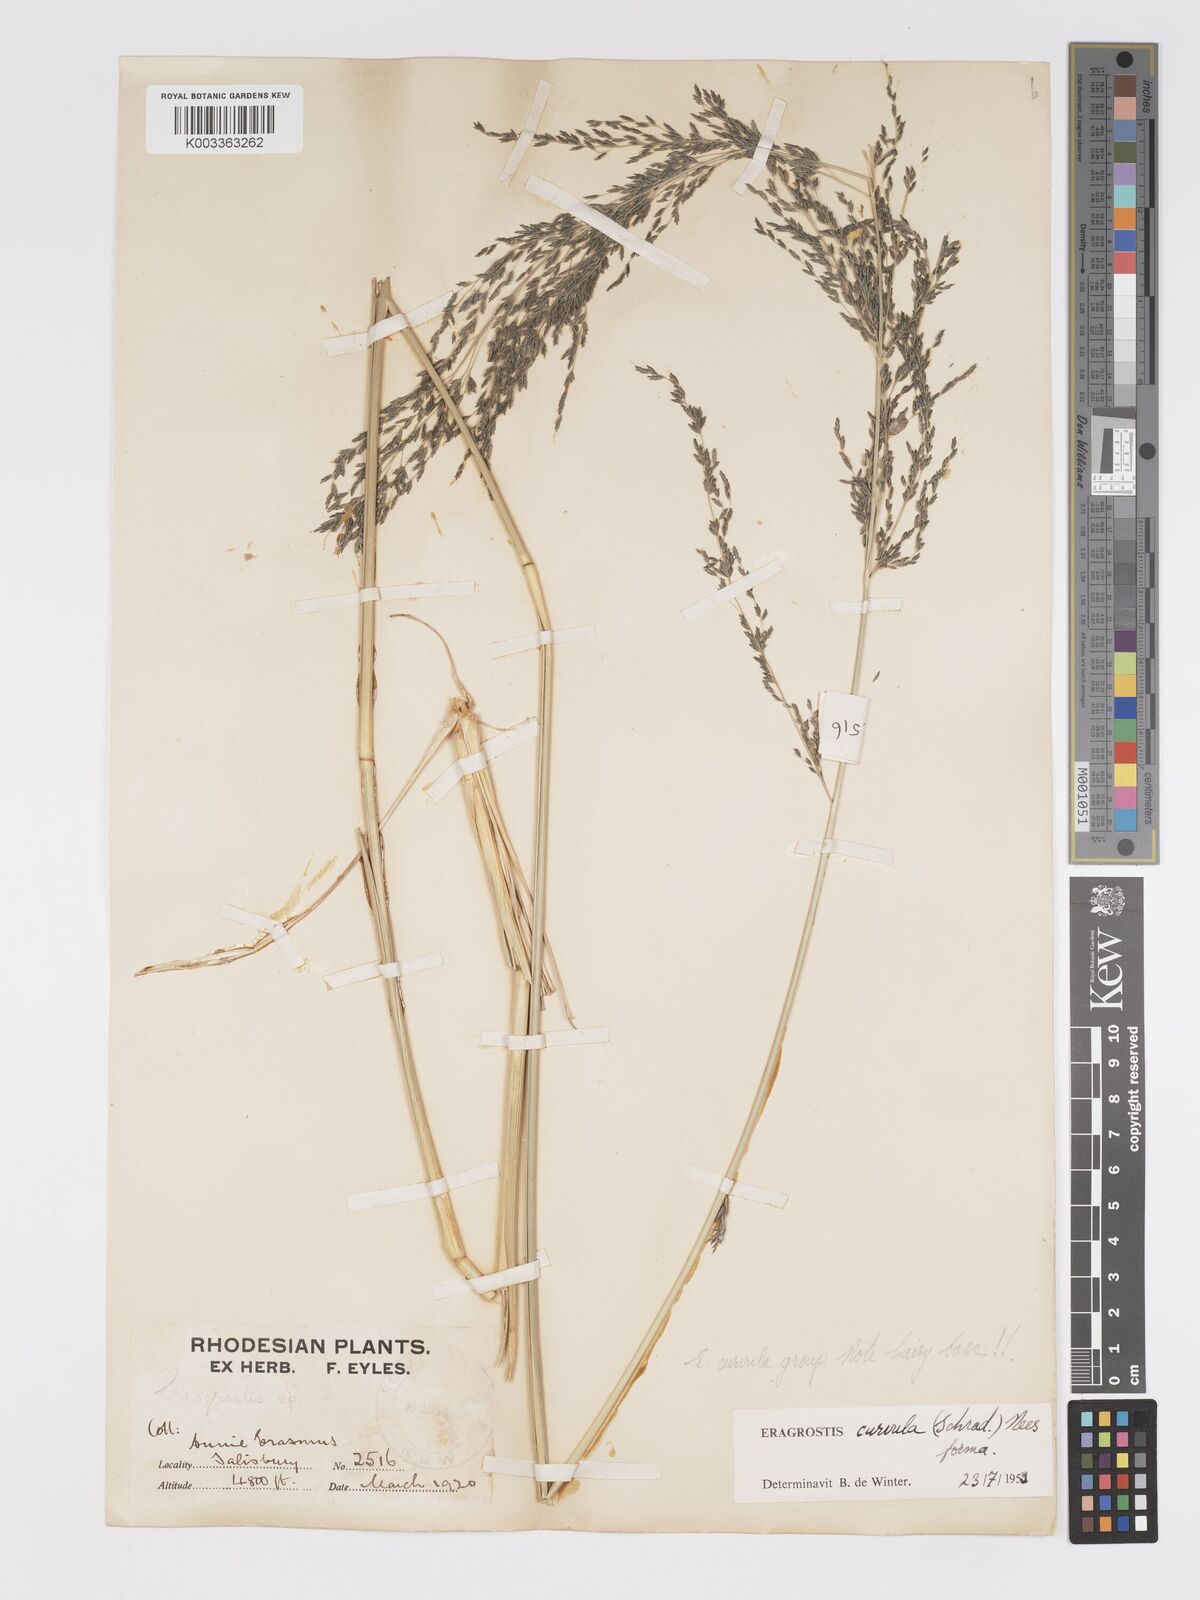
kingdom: Plantae
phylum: Tracheophyta
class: Liliopsida
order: Poales
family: Poaceae
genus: Eragrostis
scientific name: Eragrostis curvula
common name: African love-grass
